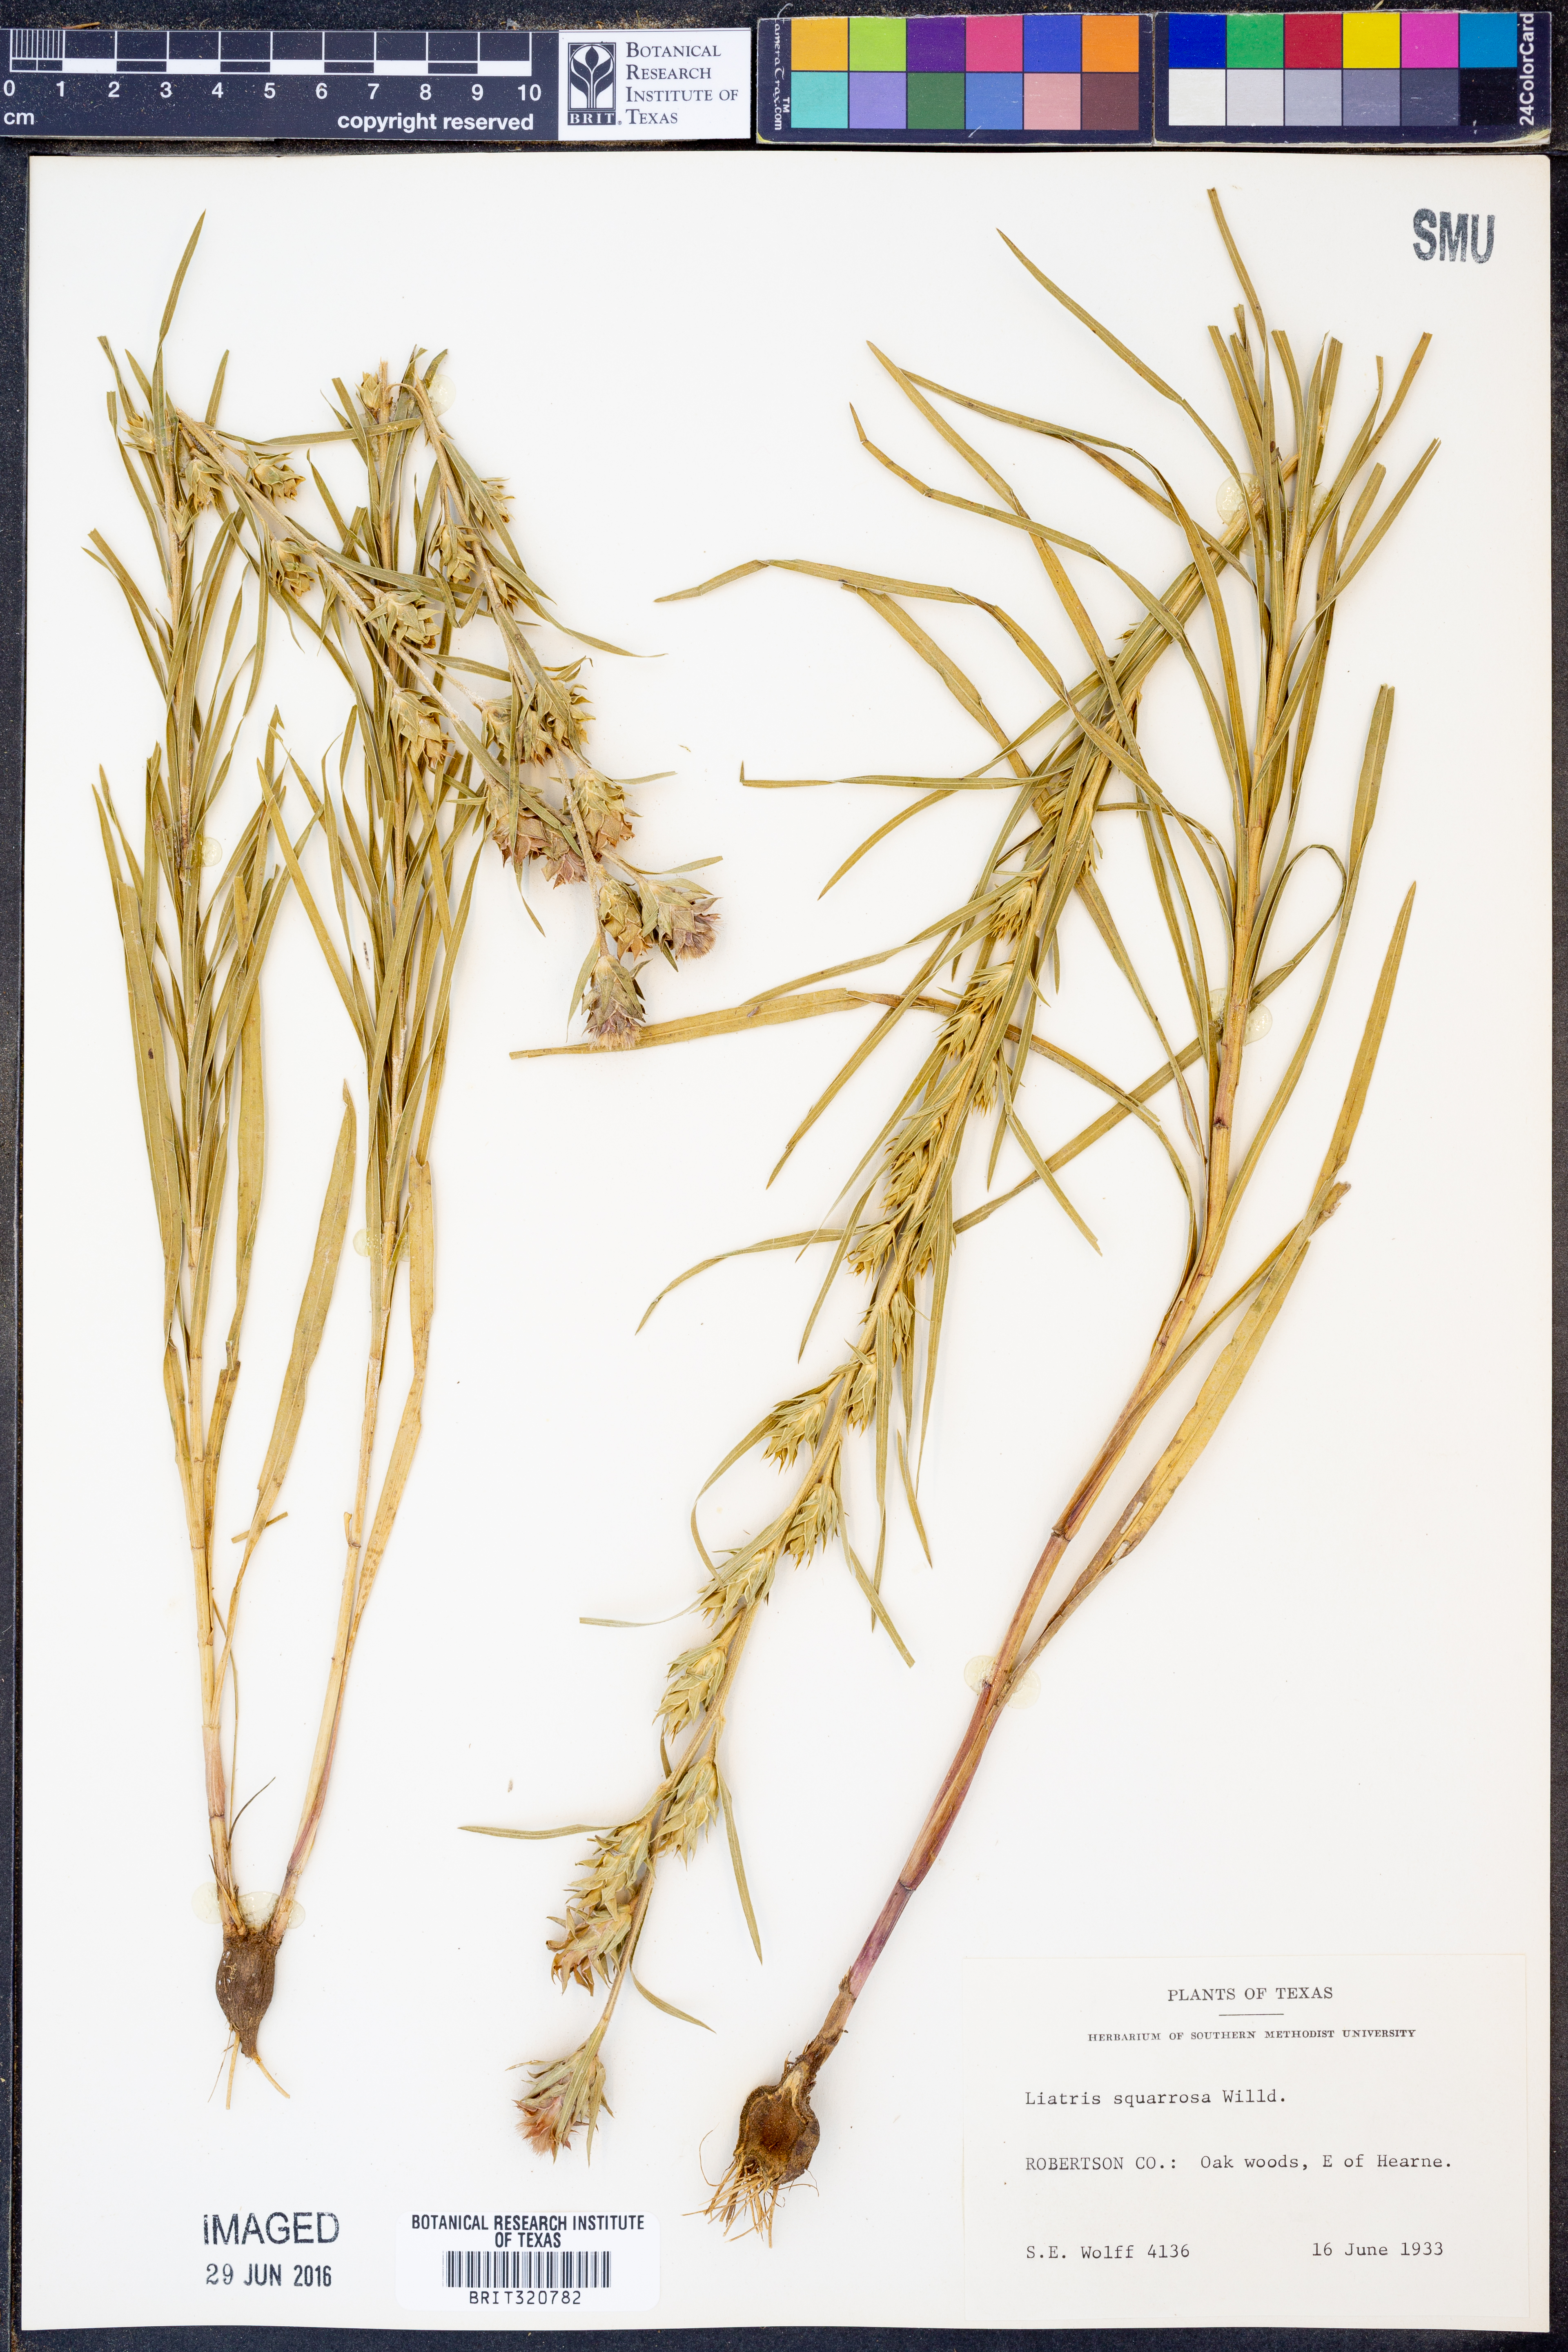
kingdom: Plantae
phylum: Tracheophyta
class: Magnoliopsida
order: Asterales
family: Asteraceae
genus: Liatris
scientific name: Liatris squarrosa
